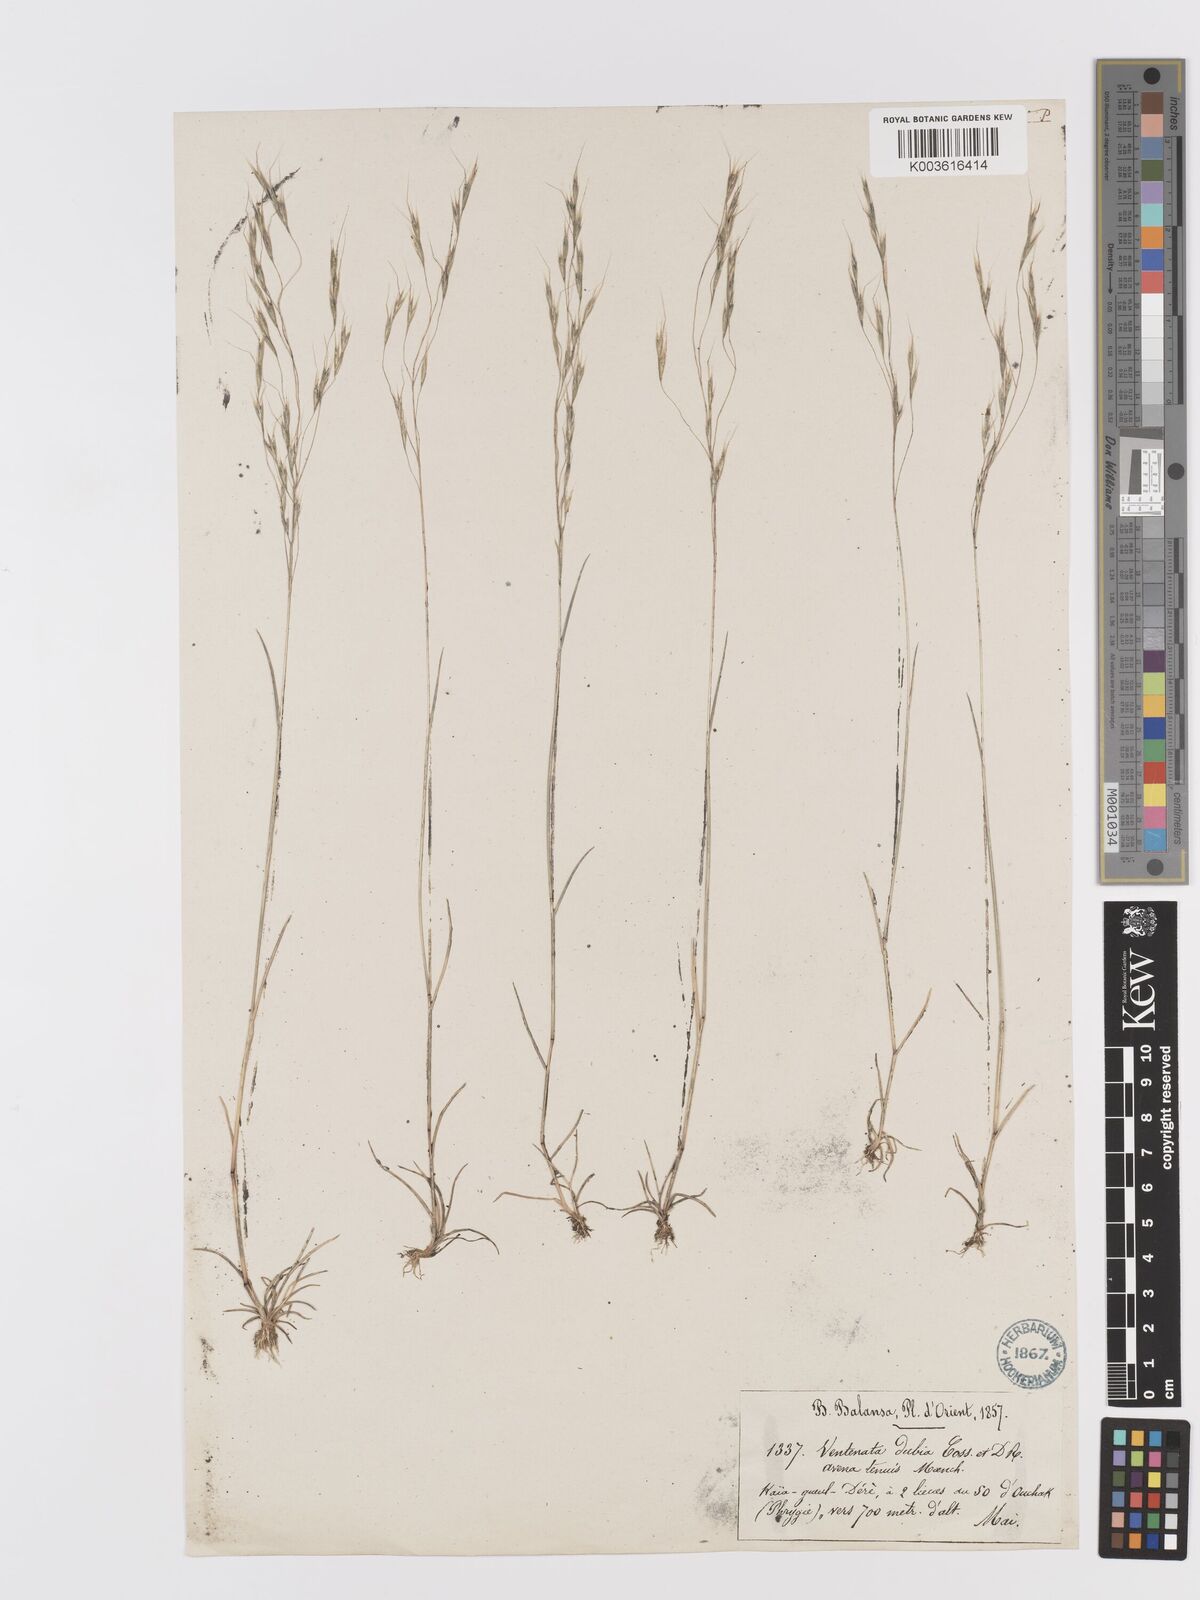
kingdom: Plantae
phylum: Tracheophyta
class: Liliopsida
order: Poales
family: Poaceae
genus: Ventenata
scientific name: Ventenata dubia
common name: North africa grass
